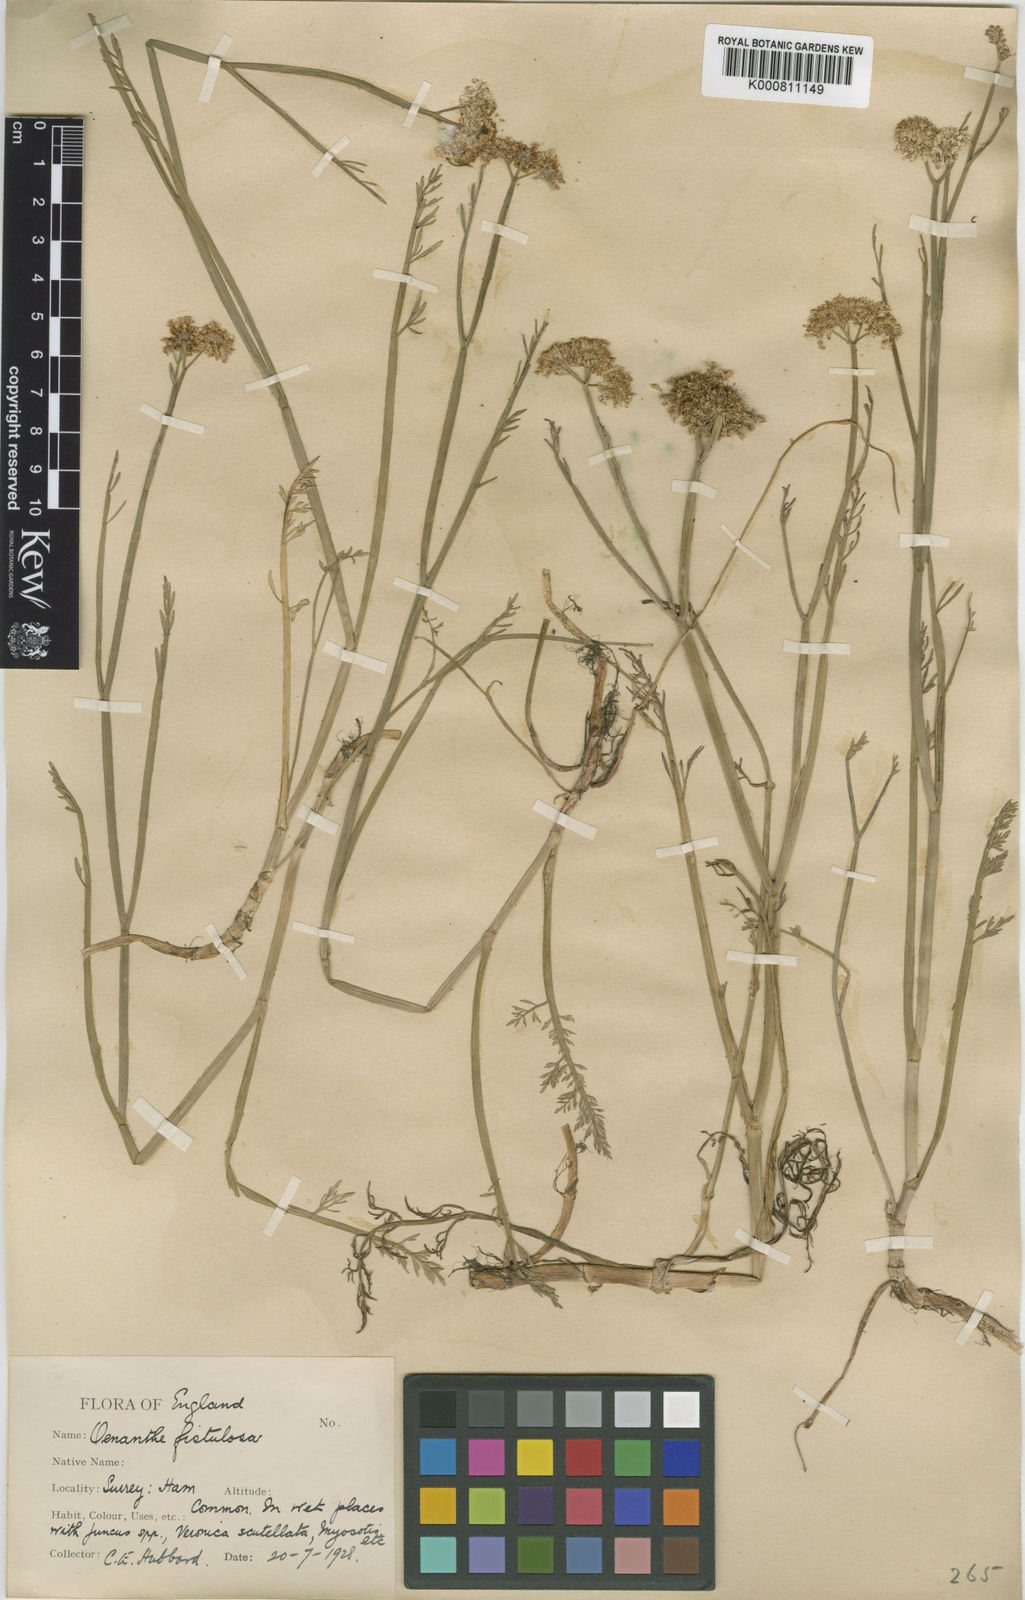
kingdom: Plantae
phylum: Tracheophyta
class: Magnoliopsida
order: Apiales
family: Apiaceae
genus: Oenanthe
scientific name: Oenanthe fistulosa
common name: Tubular water-dropwort
